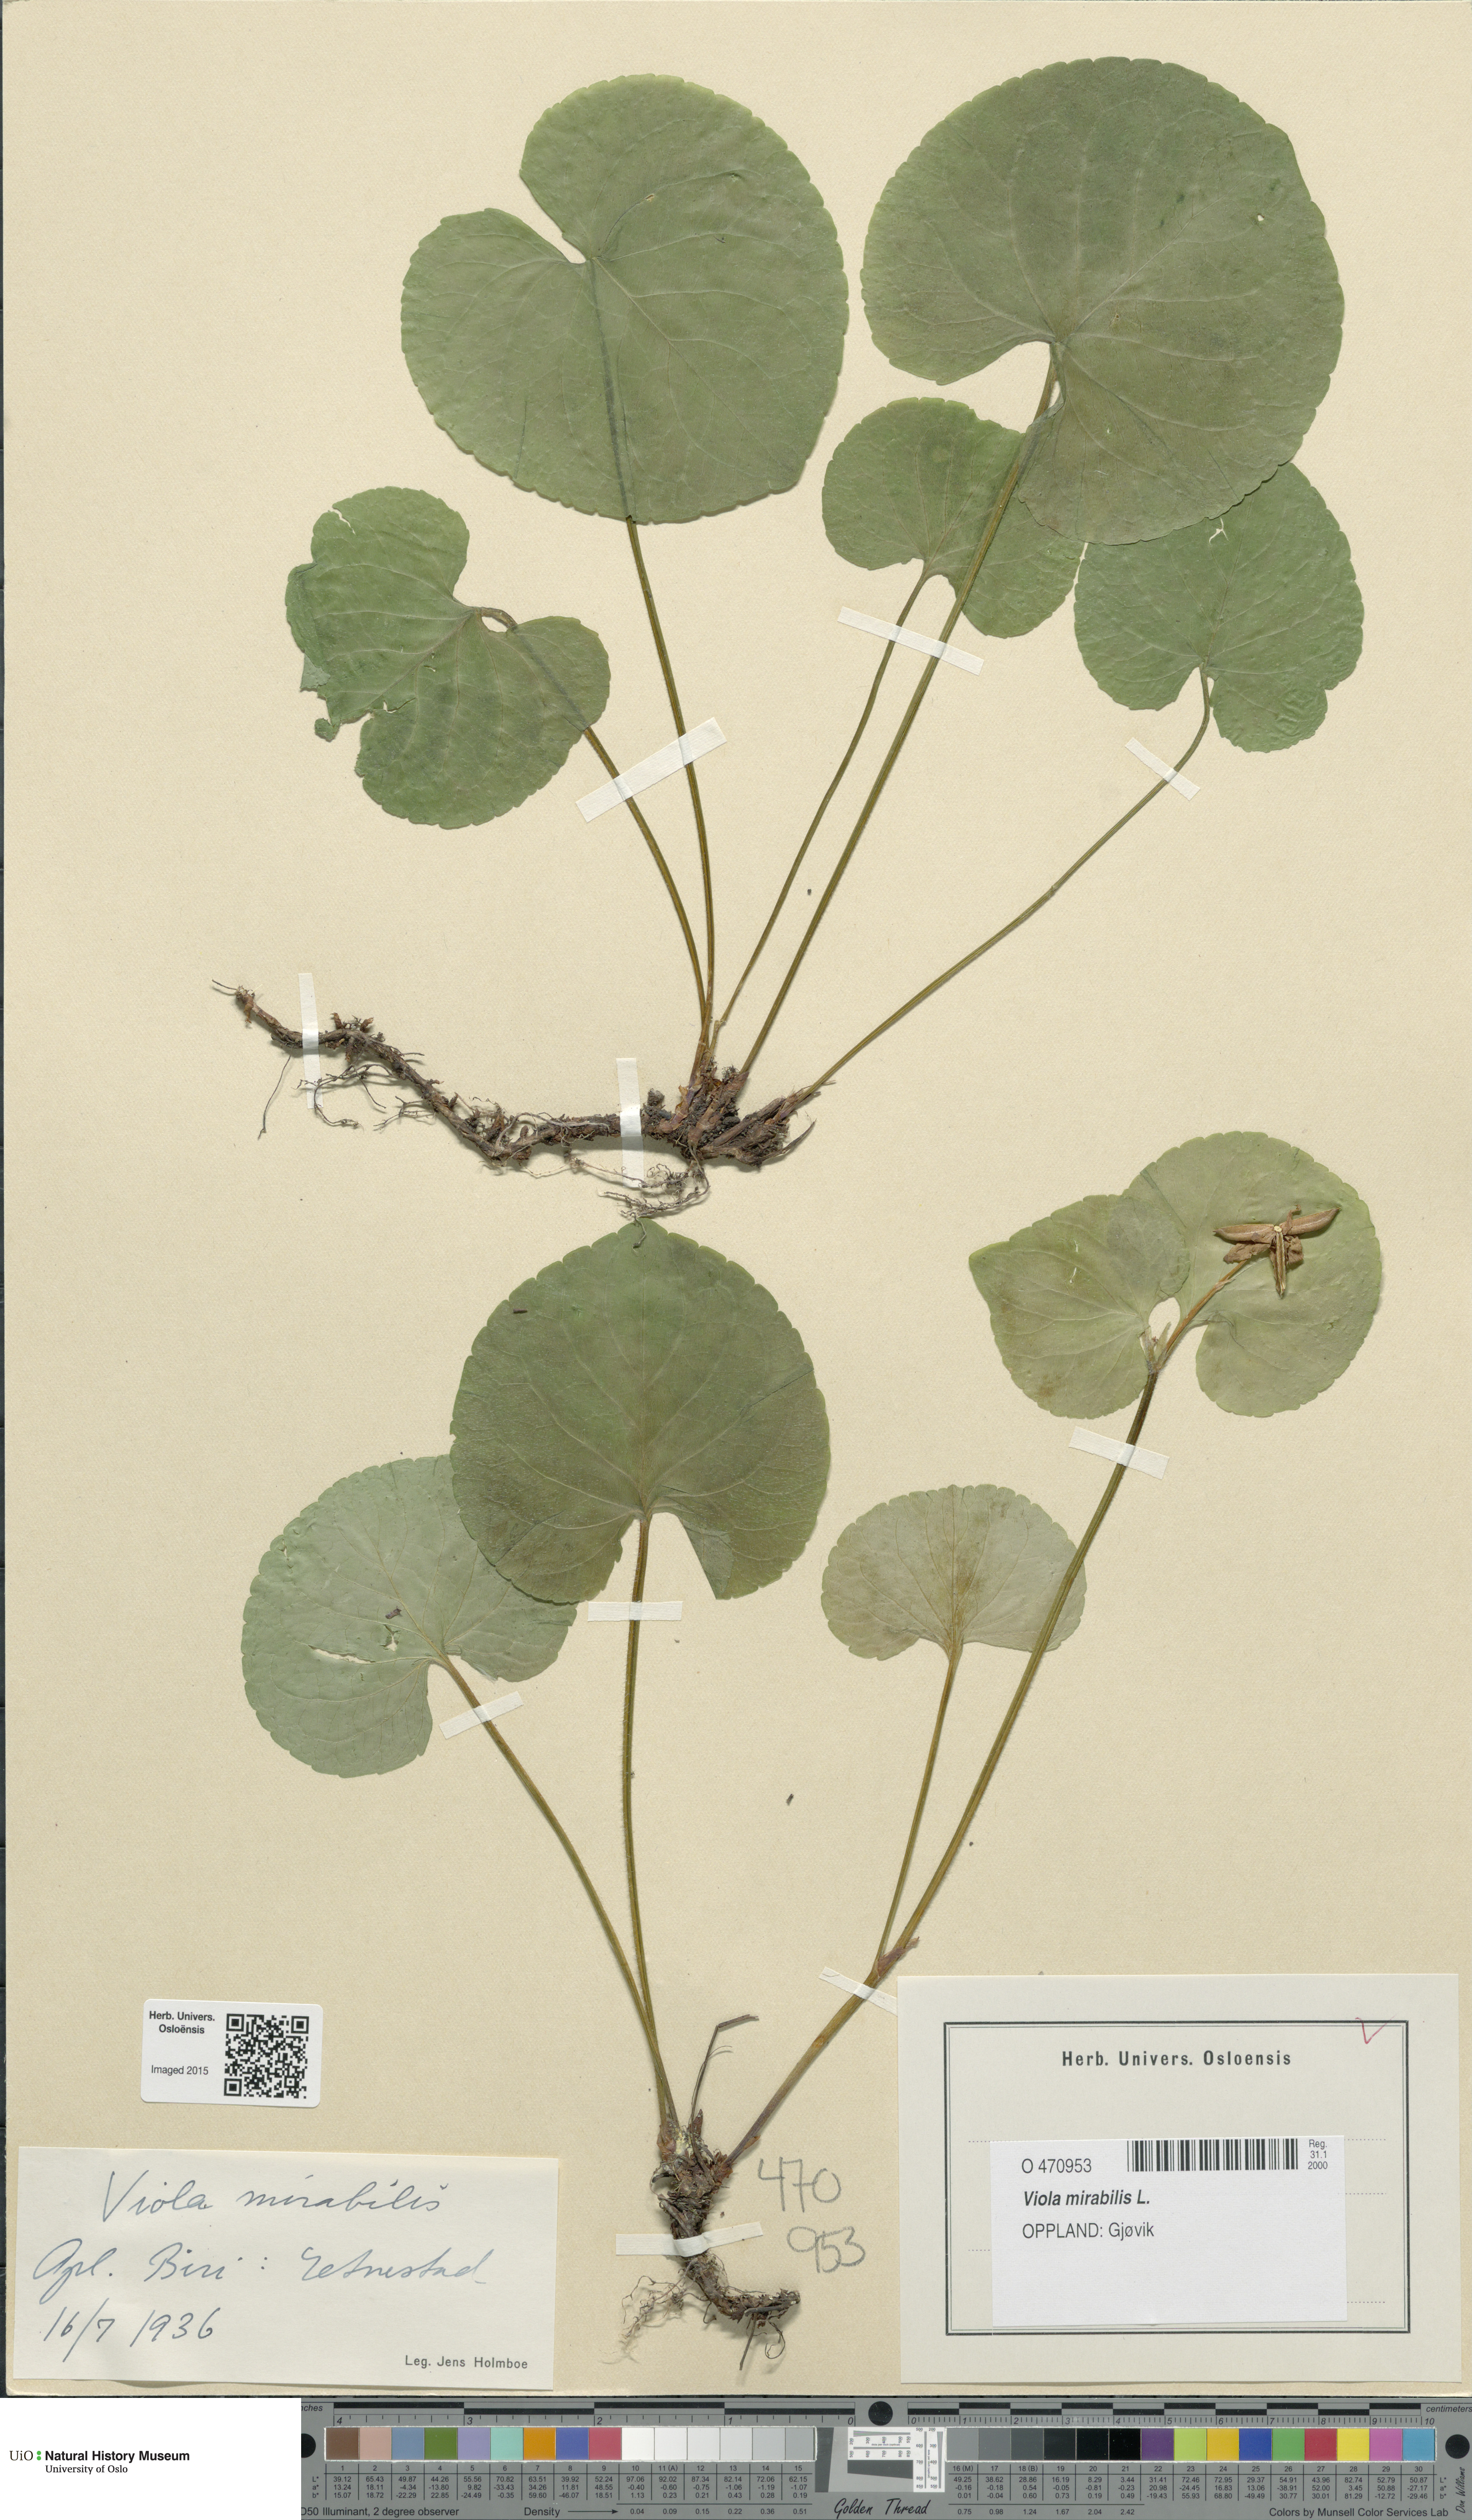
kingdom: Plantae
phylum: Tracheophyta
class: Magnoliopsida
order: Malpighiales
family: Violaceae
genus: Viola
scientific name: Viola mirabilis
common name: Wonder violet
